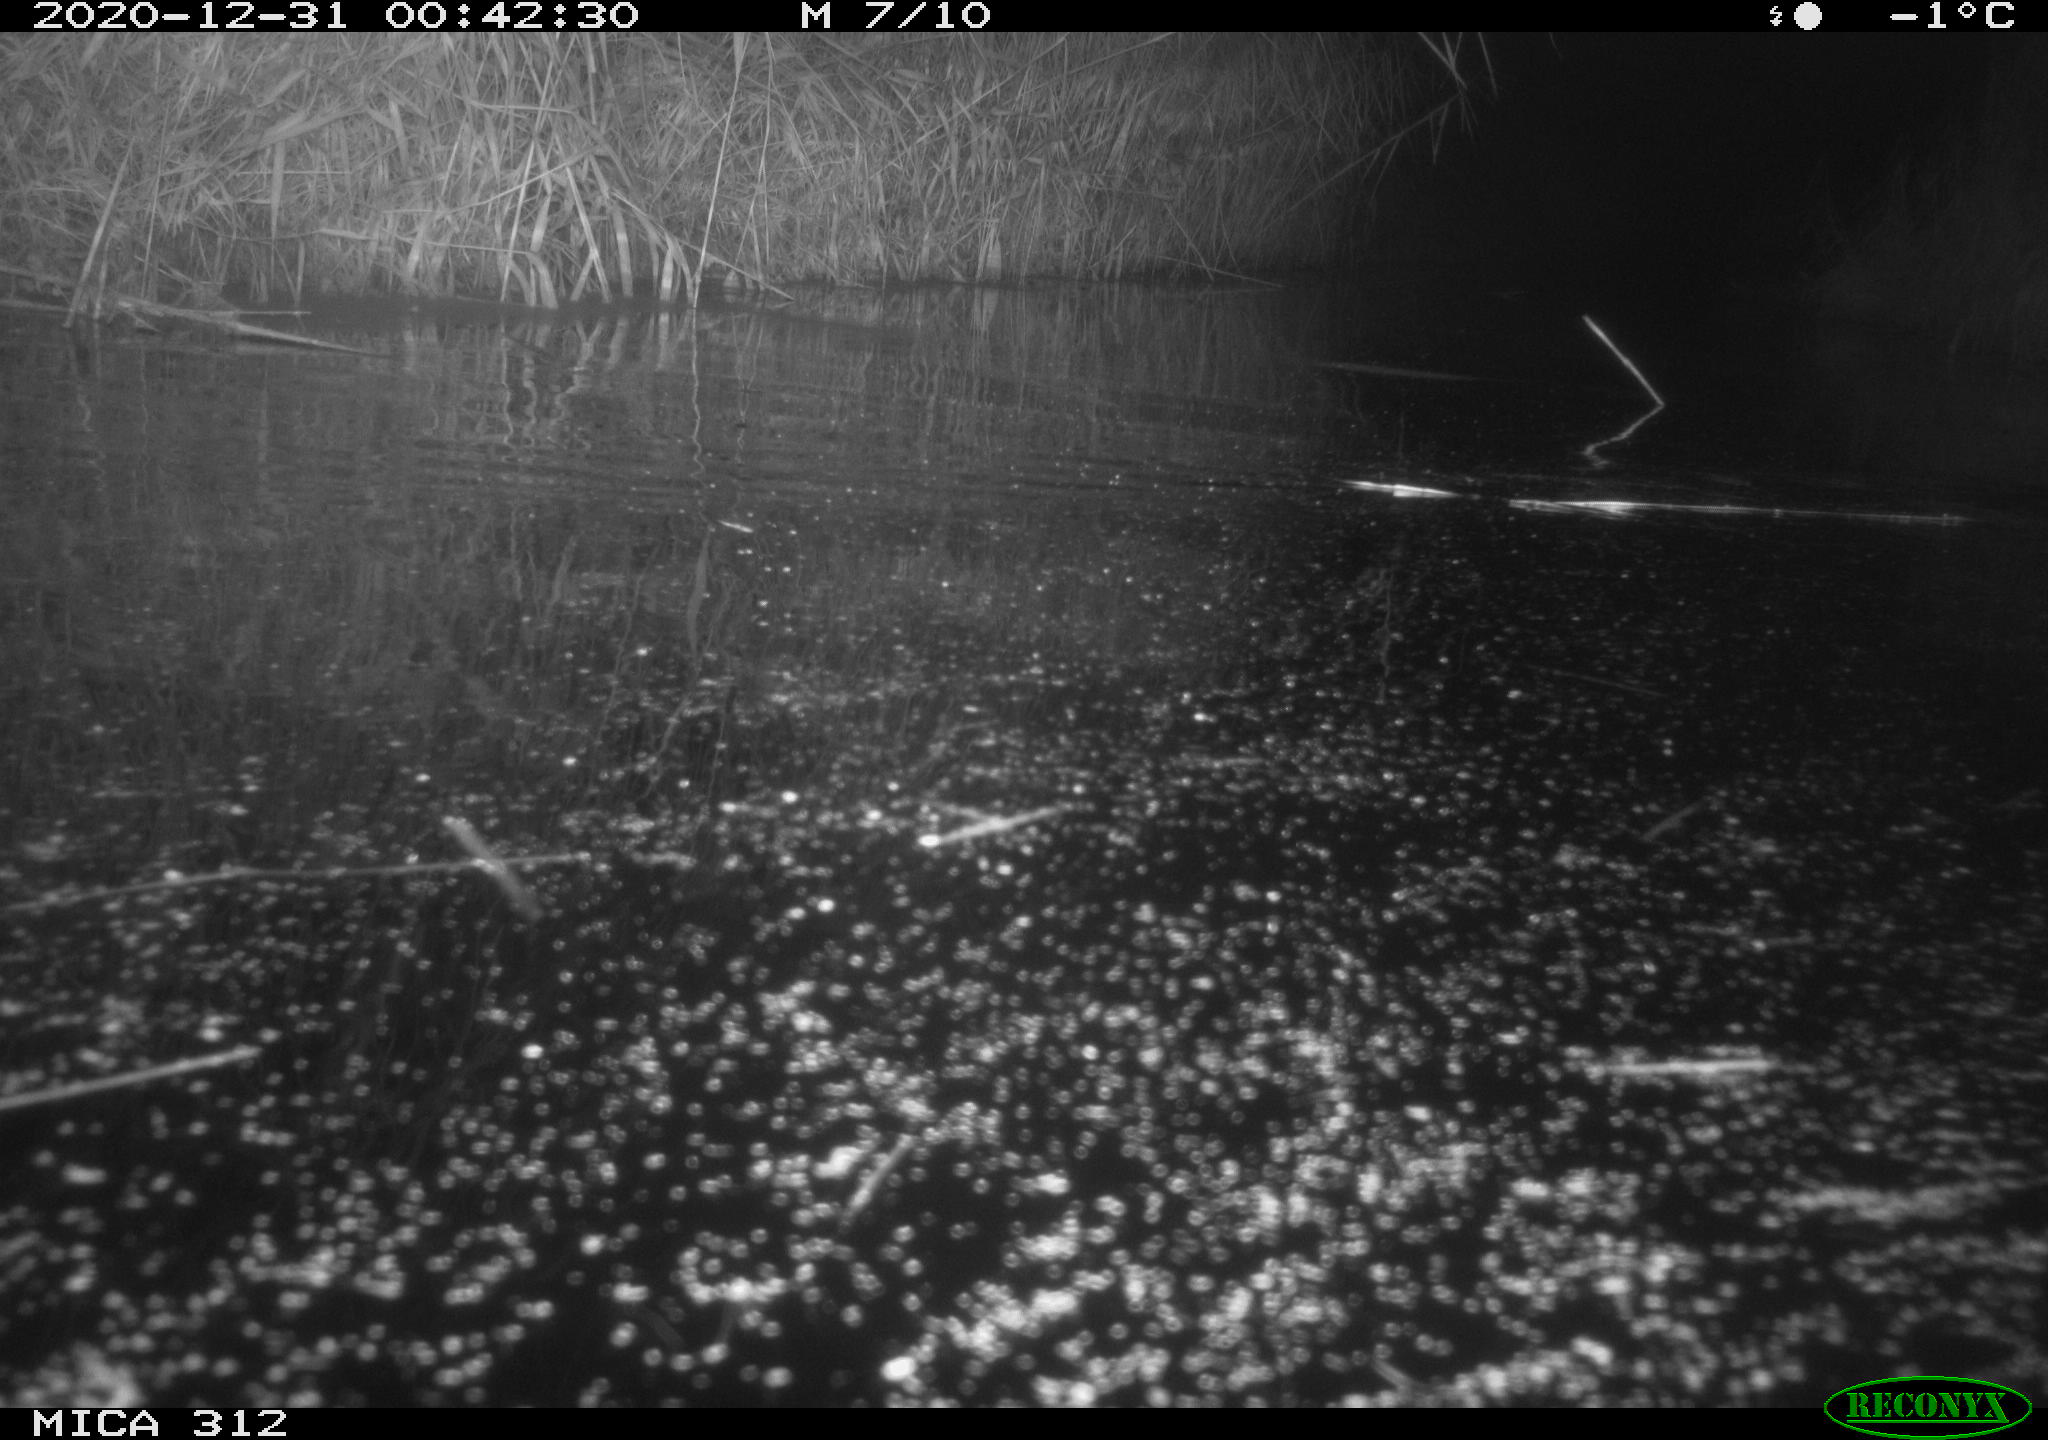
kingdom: Animalia
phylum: Chordata
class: Mammalia
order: Rodentia
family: Muridae
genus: Rattus
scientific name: Rattus norvegicus
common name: Brown rat
